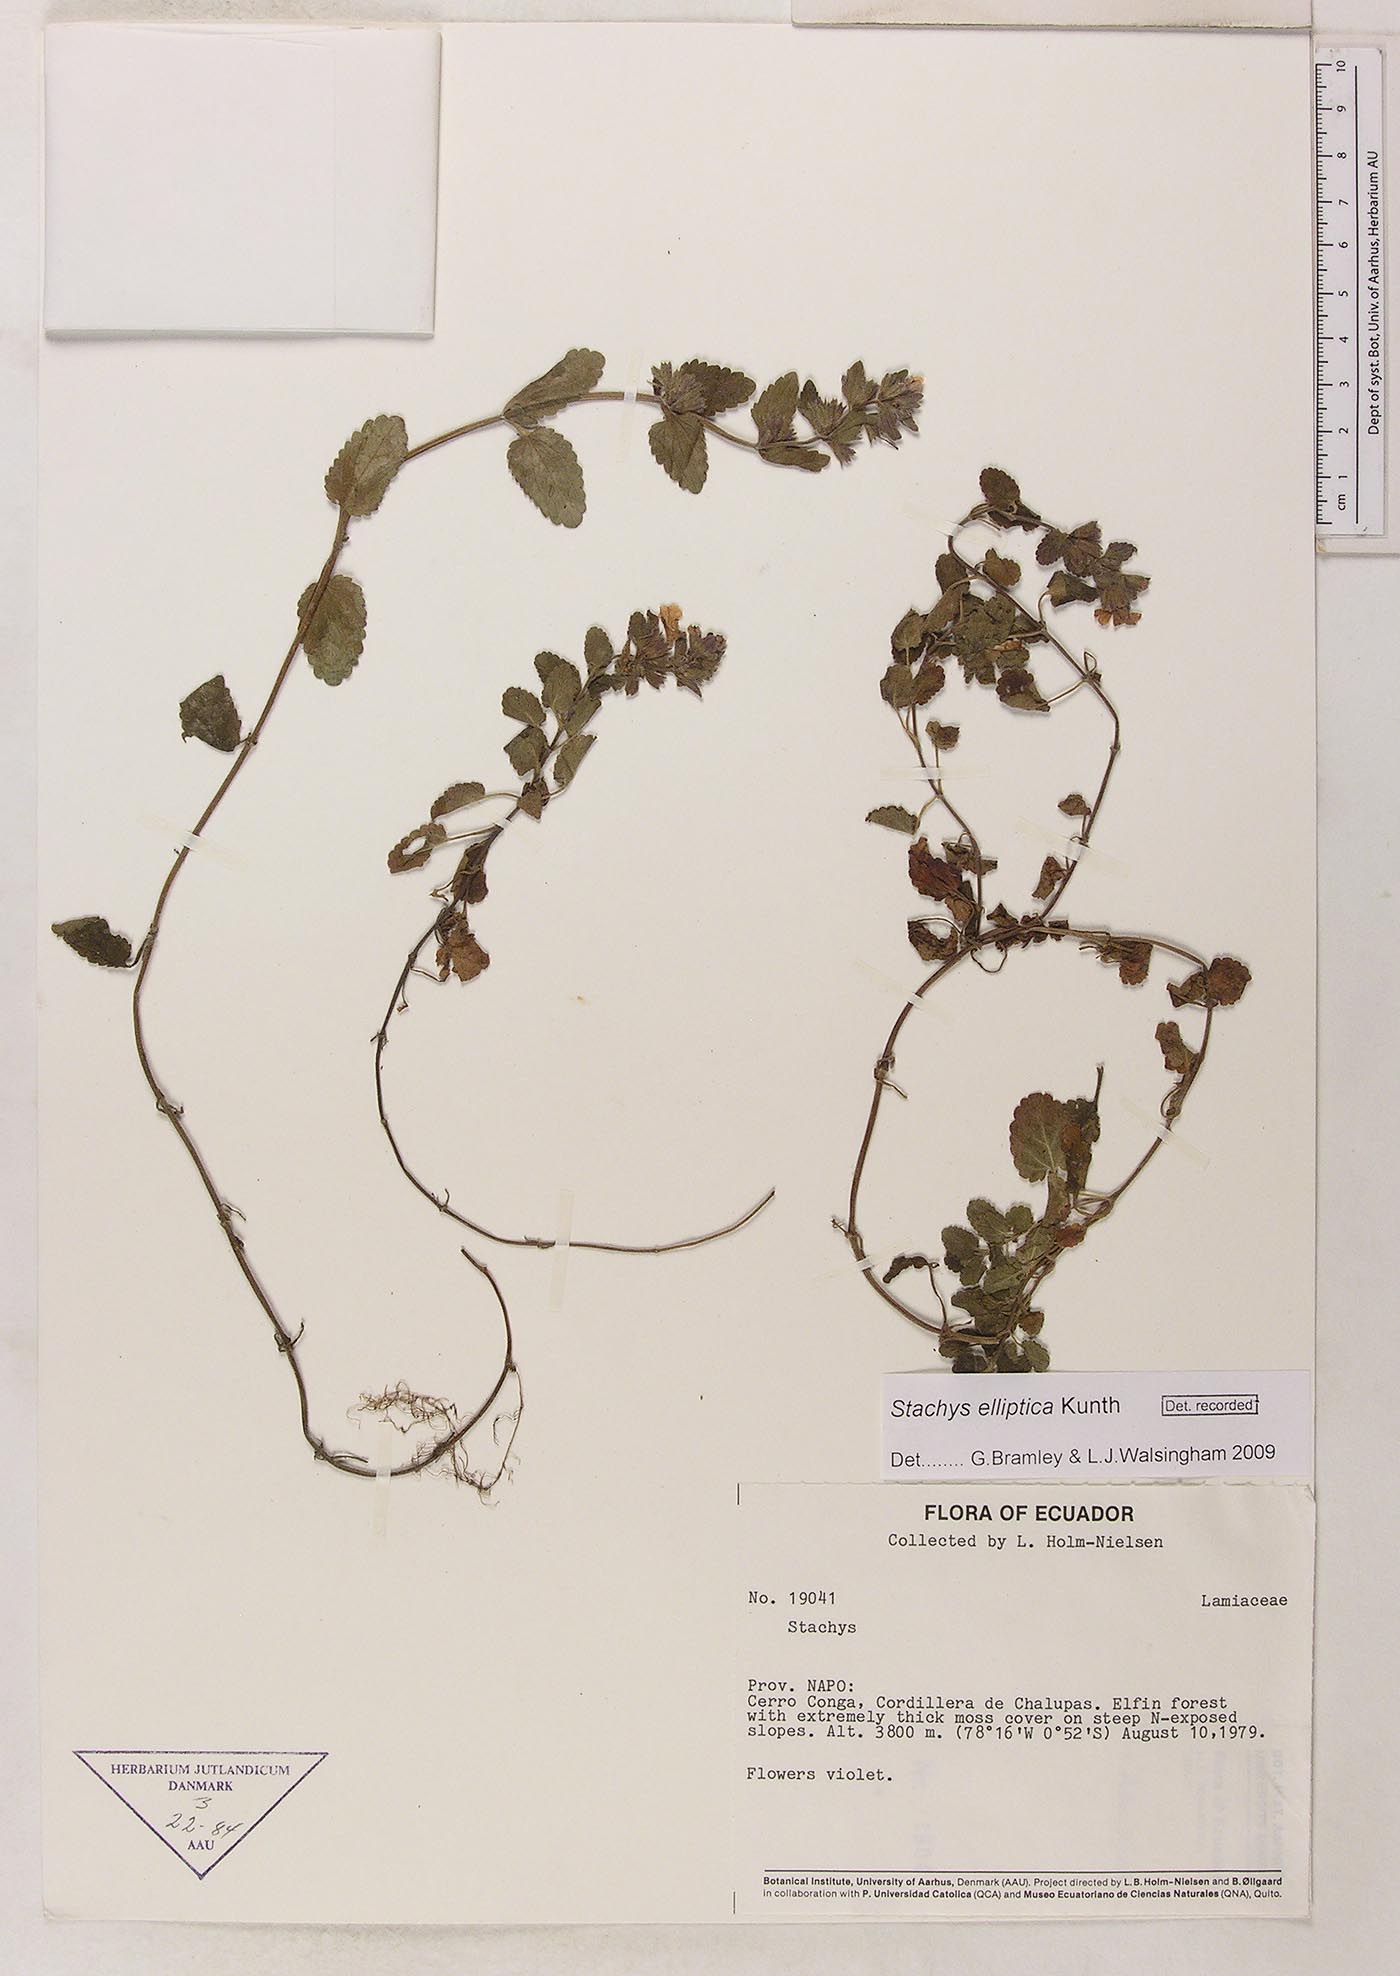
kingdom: Plantae
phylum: Tracheophyta
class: Magnoliopsida
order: Lamiales
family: Lamiaceae
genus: Stachys
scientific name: Stachys elliptica
